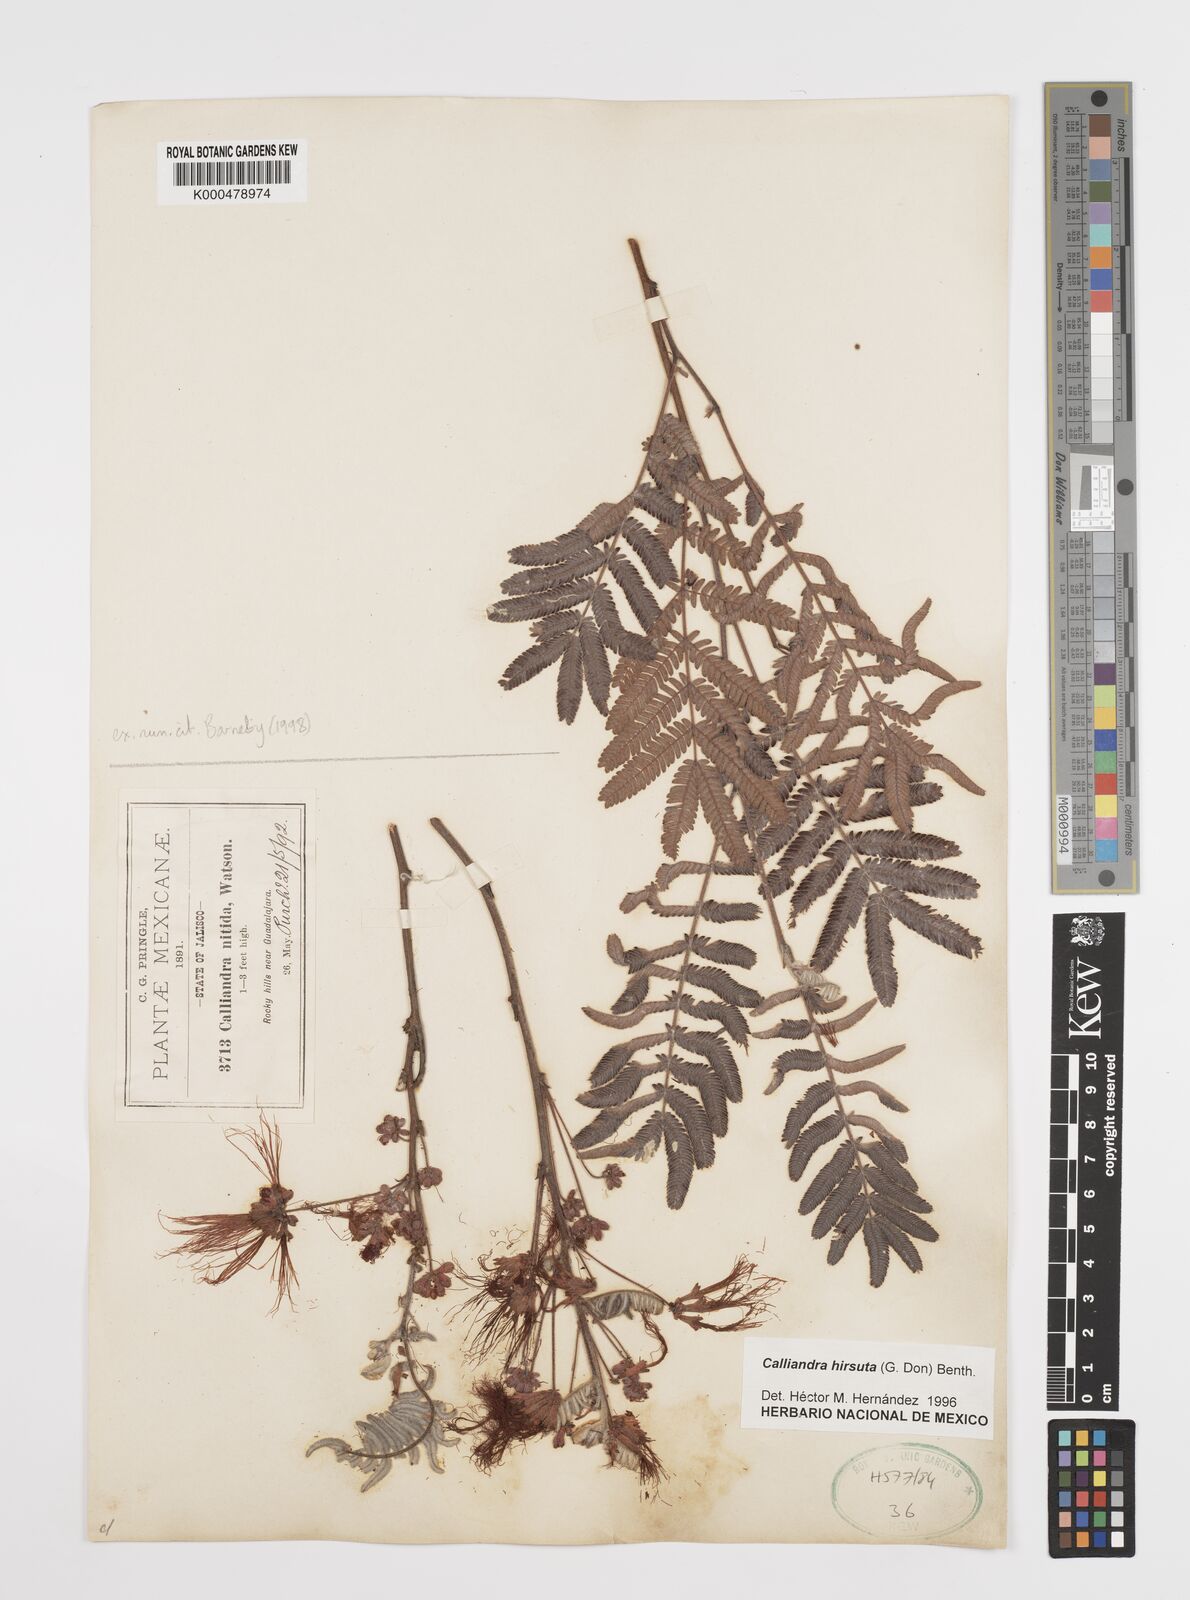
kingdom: Plantae
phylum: Tracheophyta
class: Magnoliopsida
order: Fabales
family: Fabaceae
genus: Calliandra
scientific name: Calliandra hirsuta
